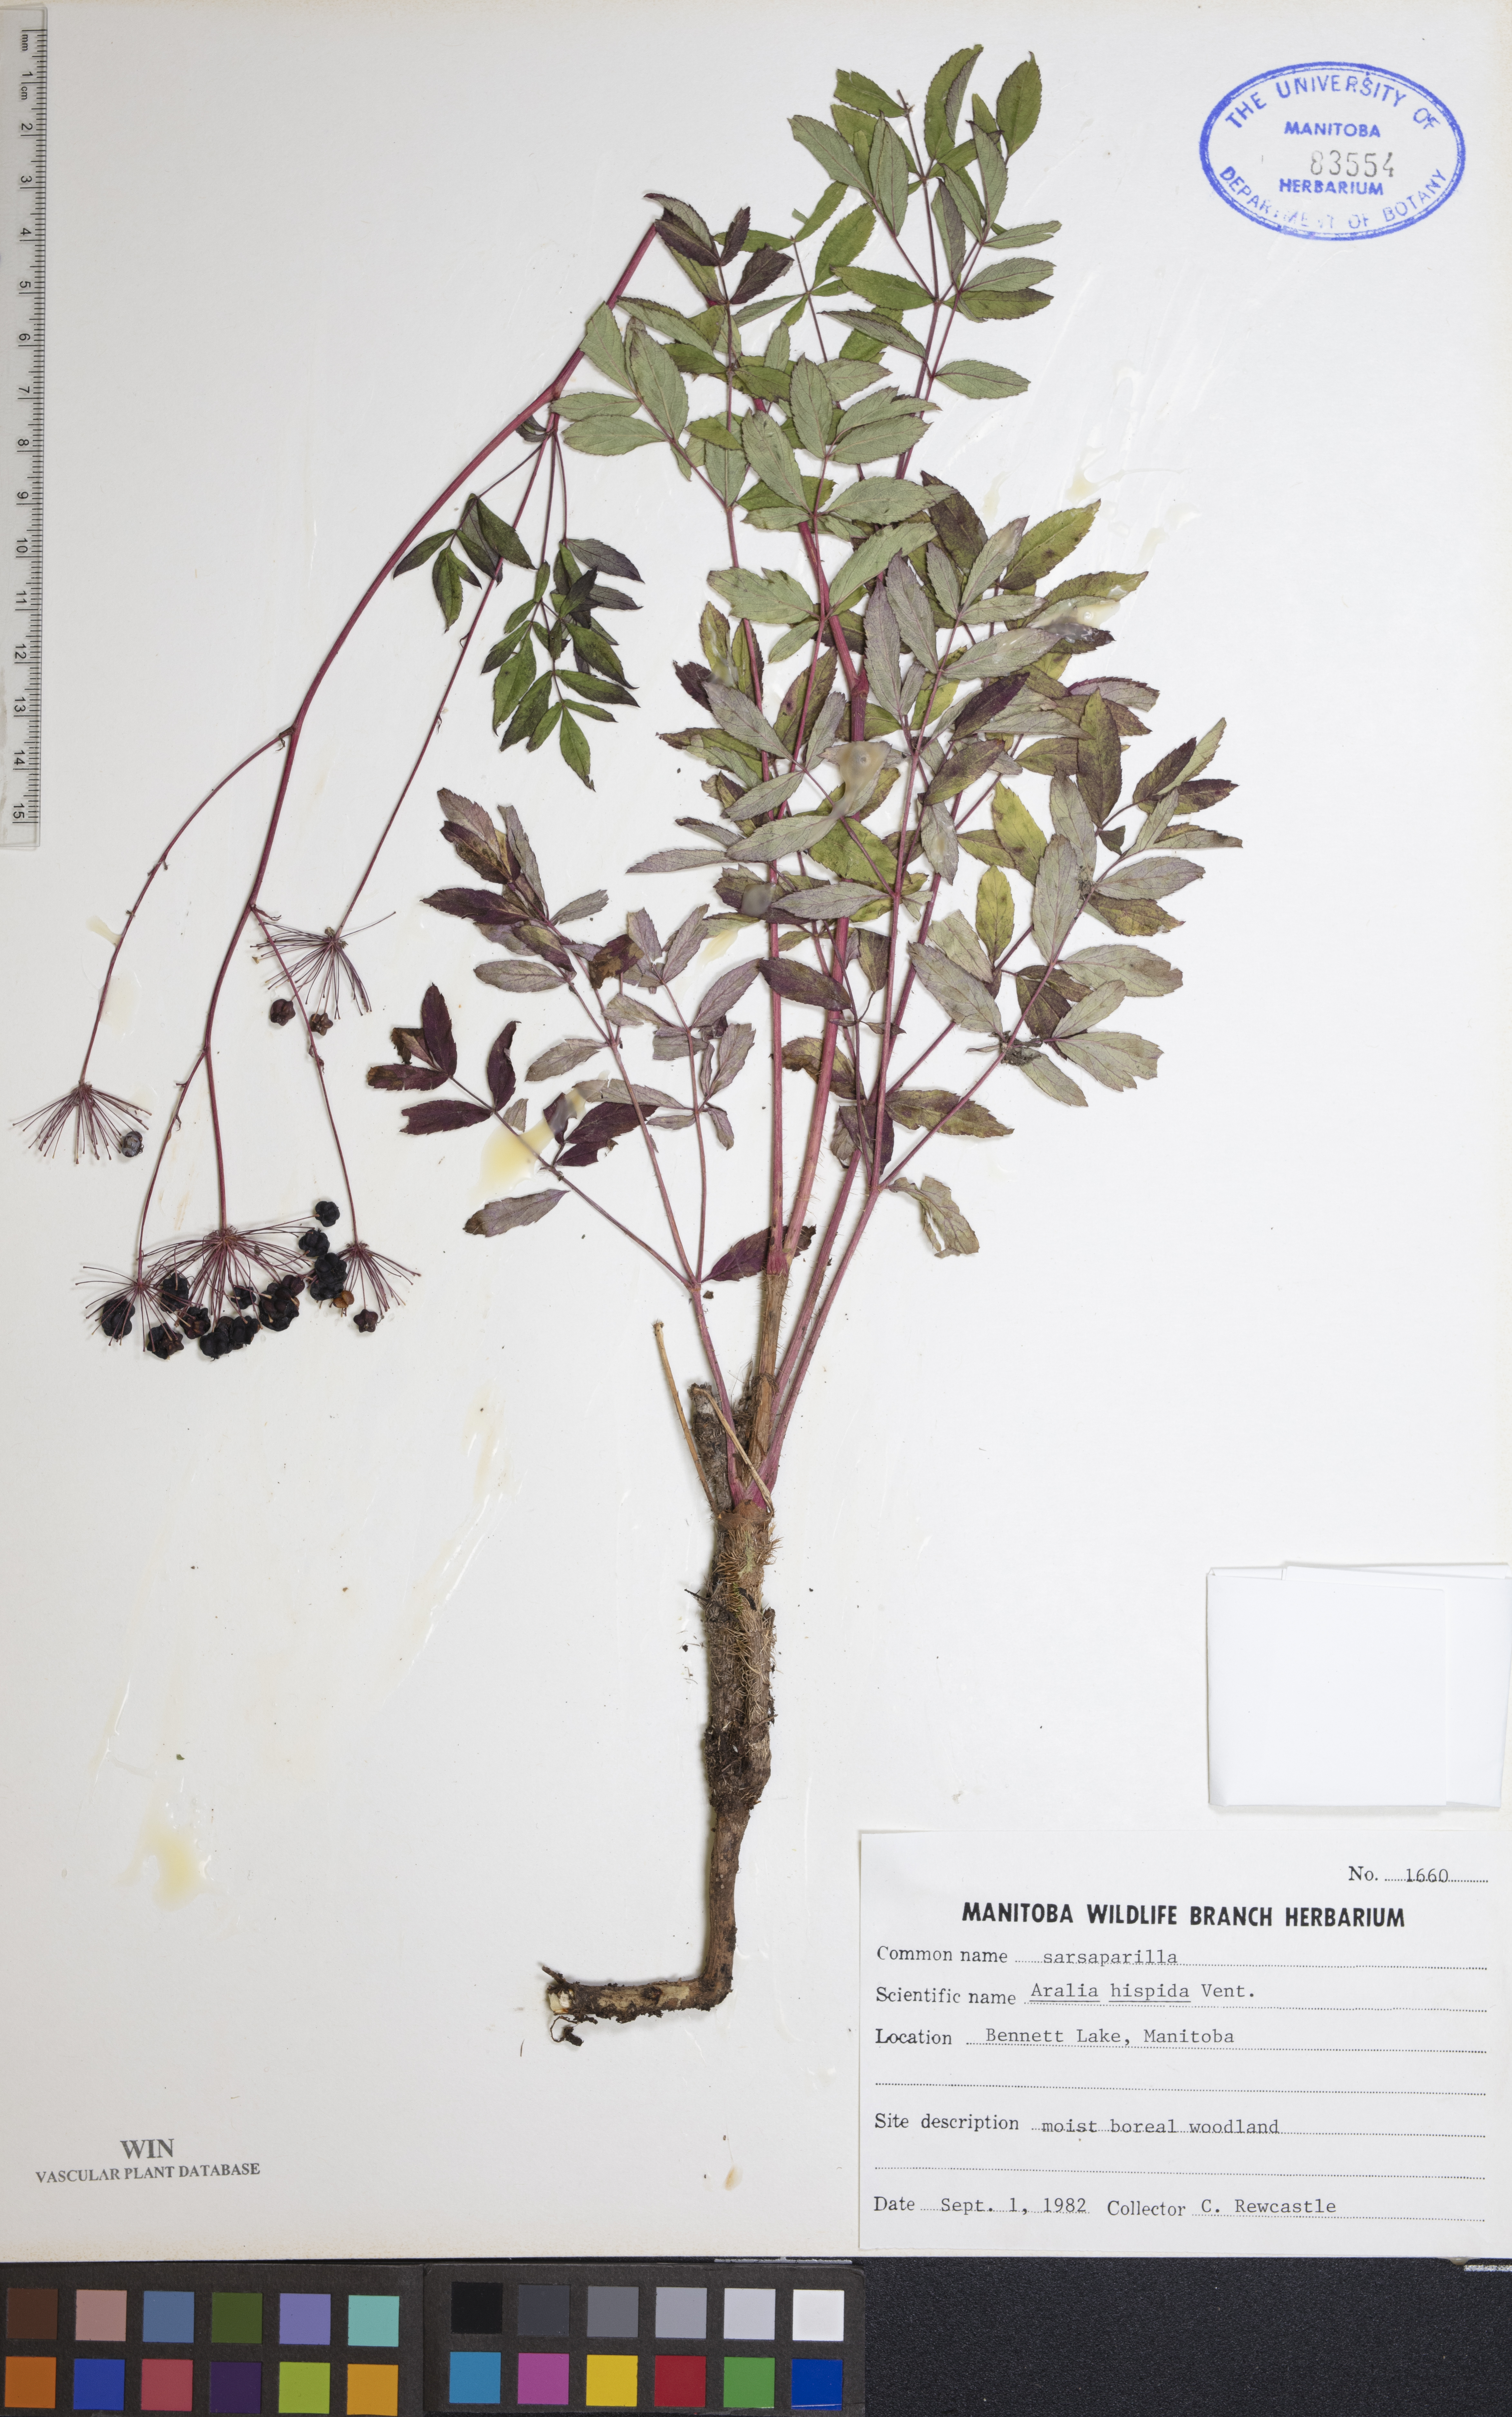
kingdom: Plantae
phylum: Tracheophyta
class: Magnoliopsida
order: Apiales
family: Araliaceae
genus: Aralia
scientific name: Aralia hispida
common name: Bristly sarsaparilla
